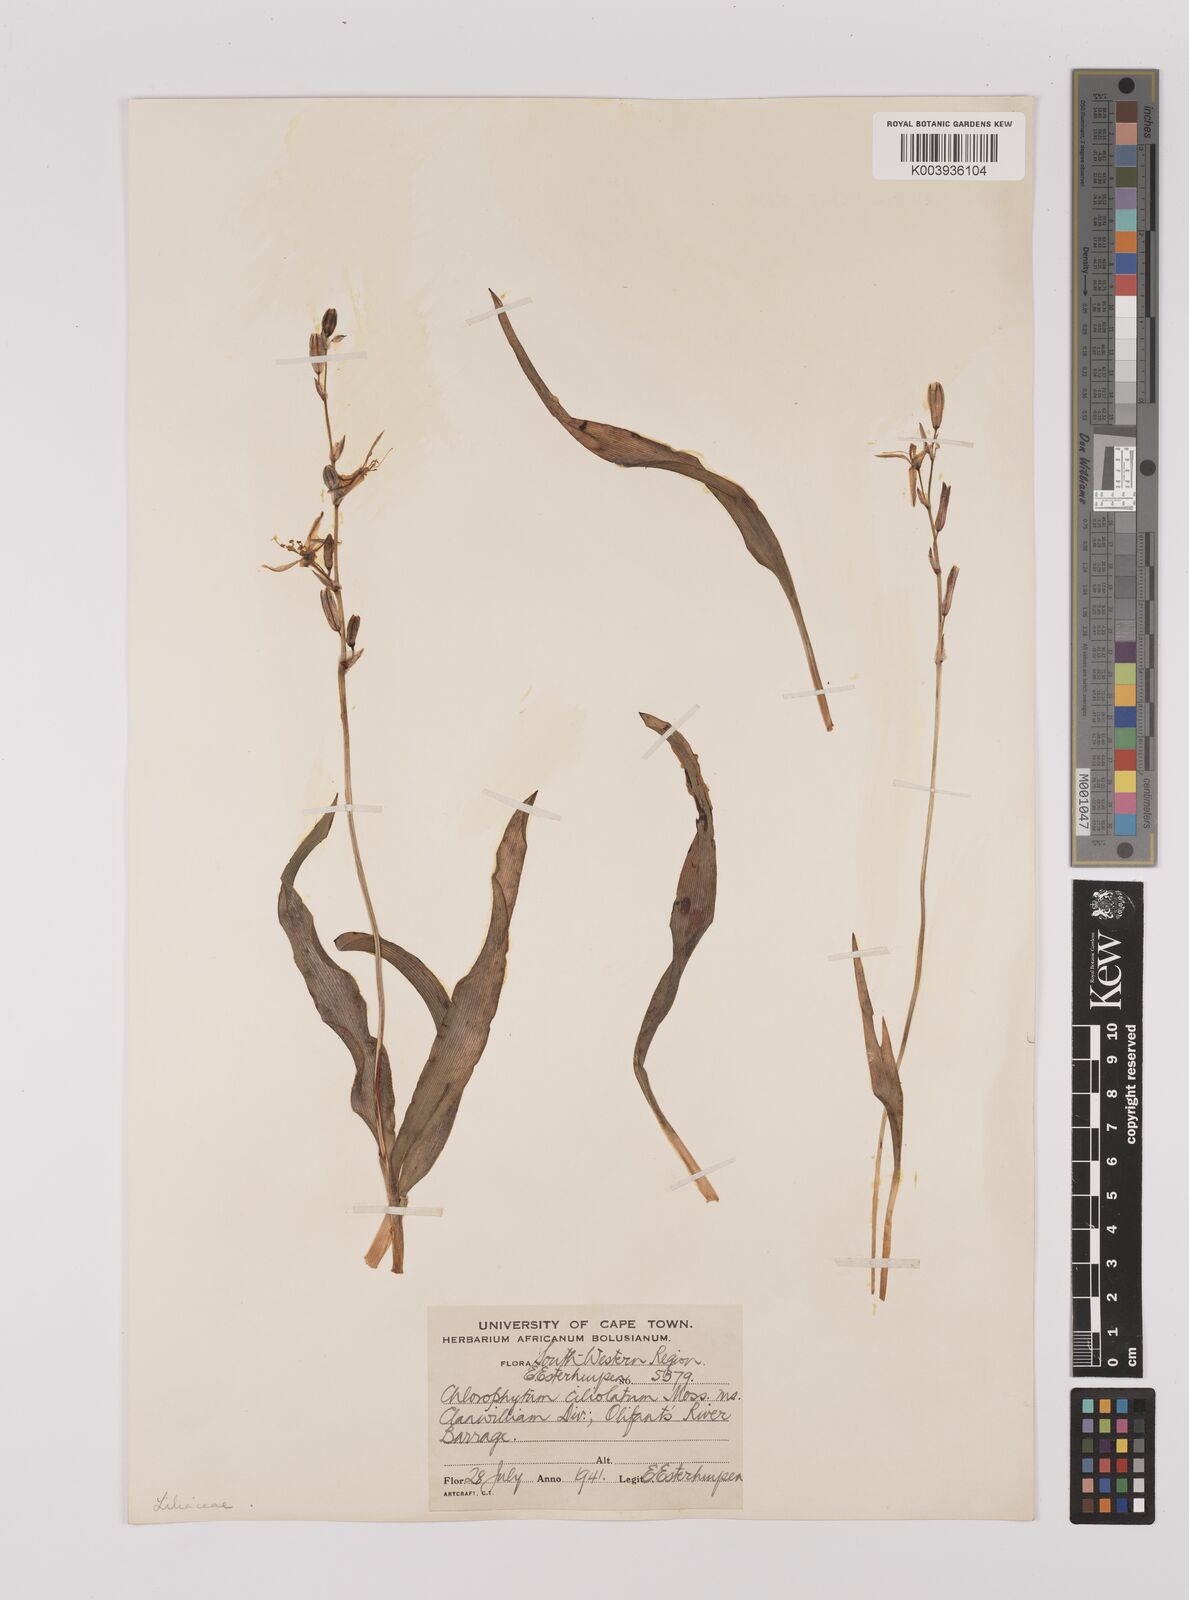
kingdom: Plantae
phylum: Tracheophyta
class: Liliopsida
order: Asparagales
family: Asparagaceae
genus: Chlorophytum
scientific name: Chlorophytum triflorum
